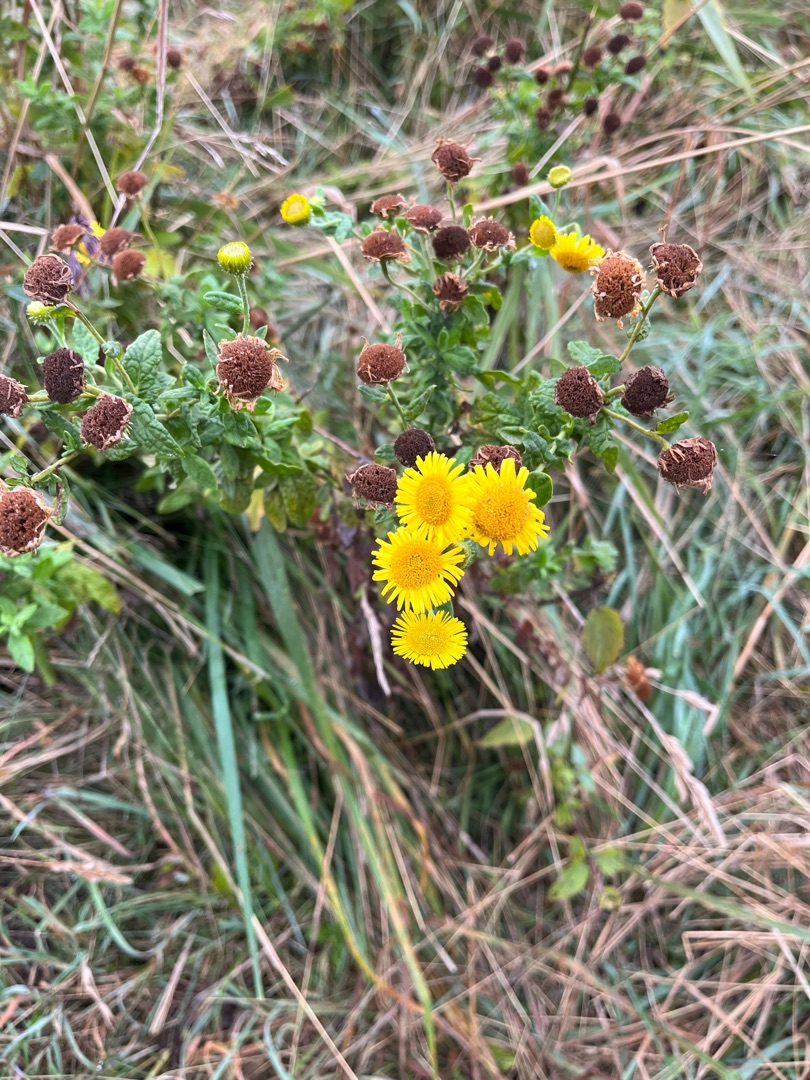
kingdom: Plantae
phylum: Tracheophyta
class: Magnoliopsida
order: Asterales
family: Asteraceae
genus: Pulicaria
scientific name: Pulicaria dysenterica
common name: Strand-loppeurt
